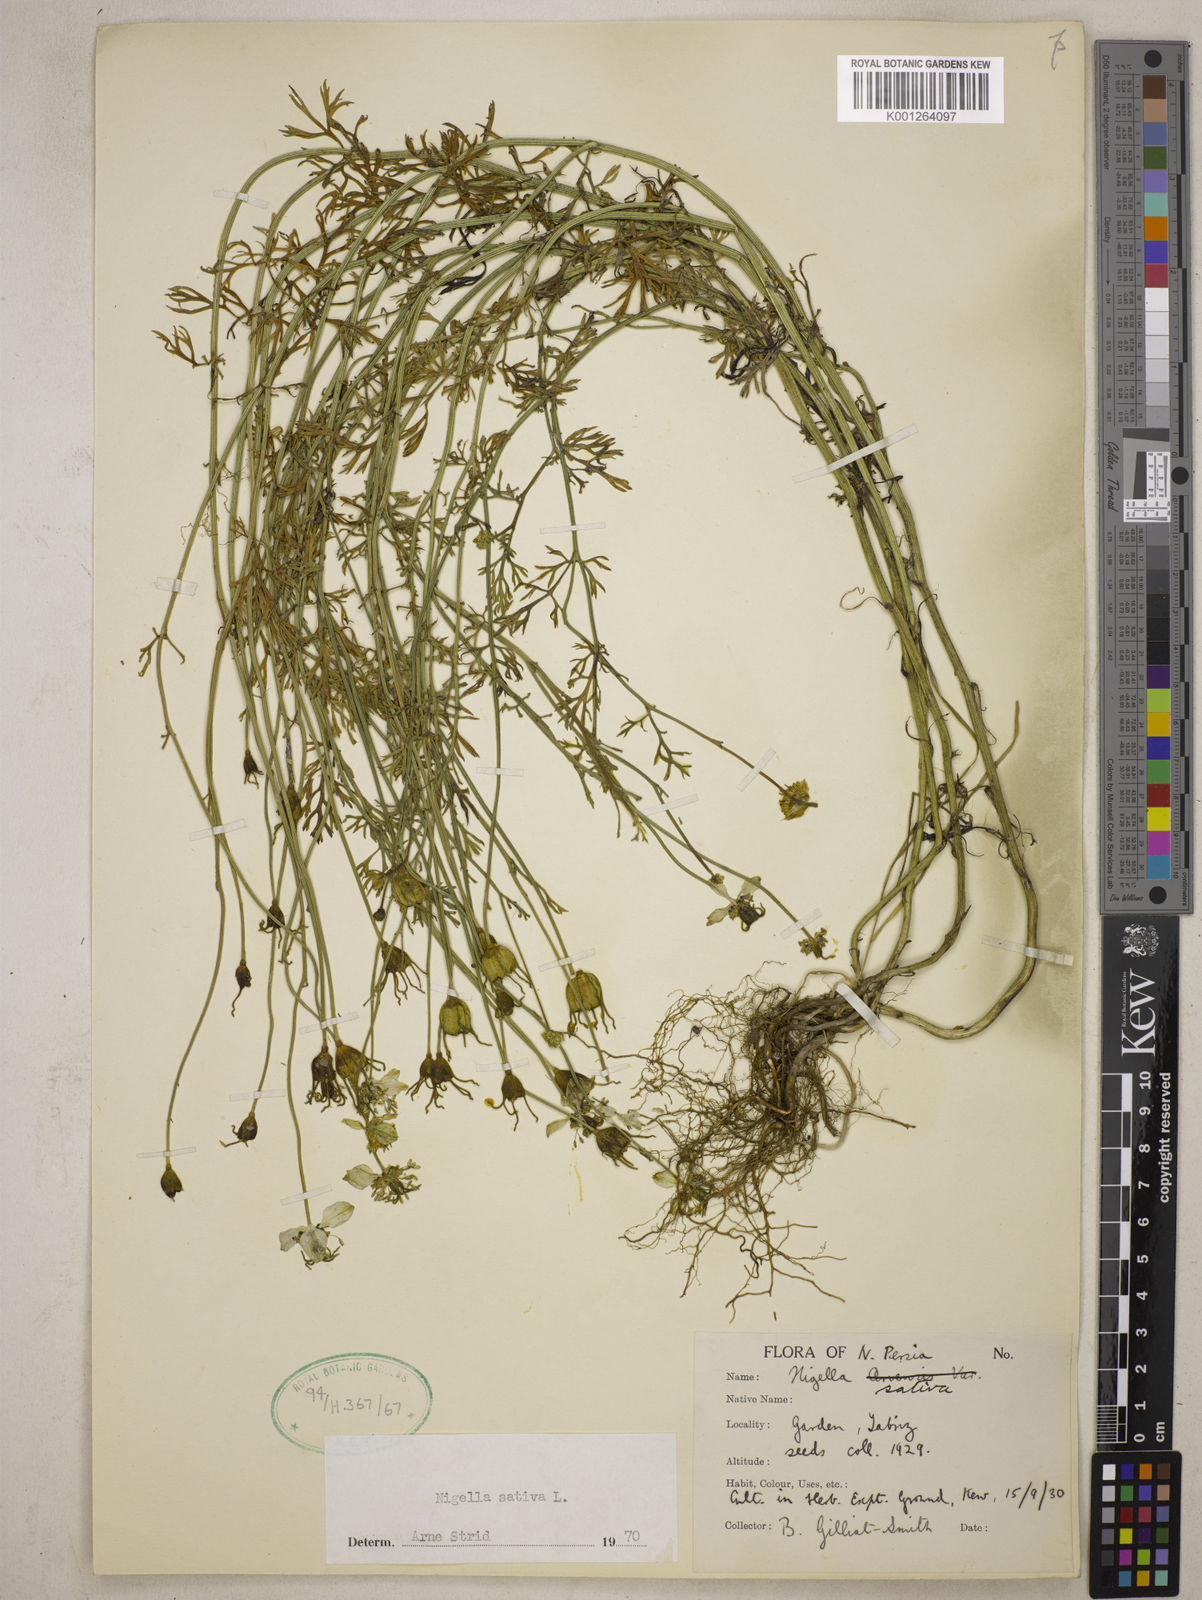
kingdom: Plantae
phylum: Tracheophyta
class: Magnoliopsida
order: Ranunculales
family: Ranunculaceae
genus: Nigella
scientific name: Nigella sativa
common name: Black-cumin
